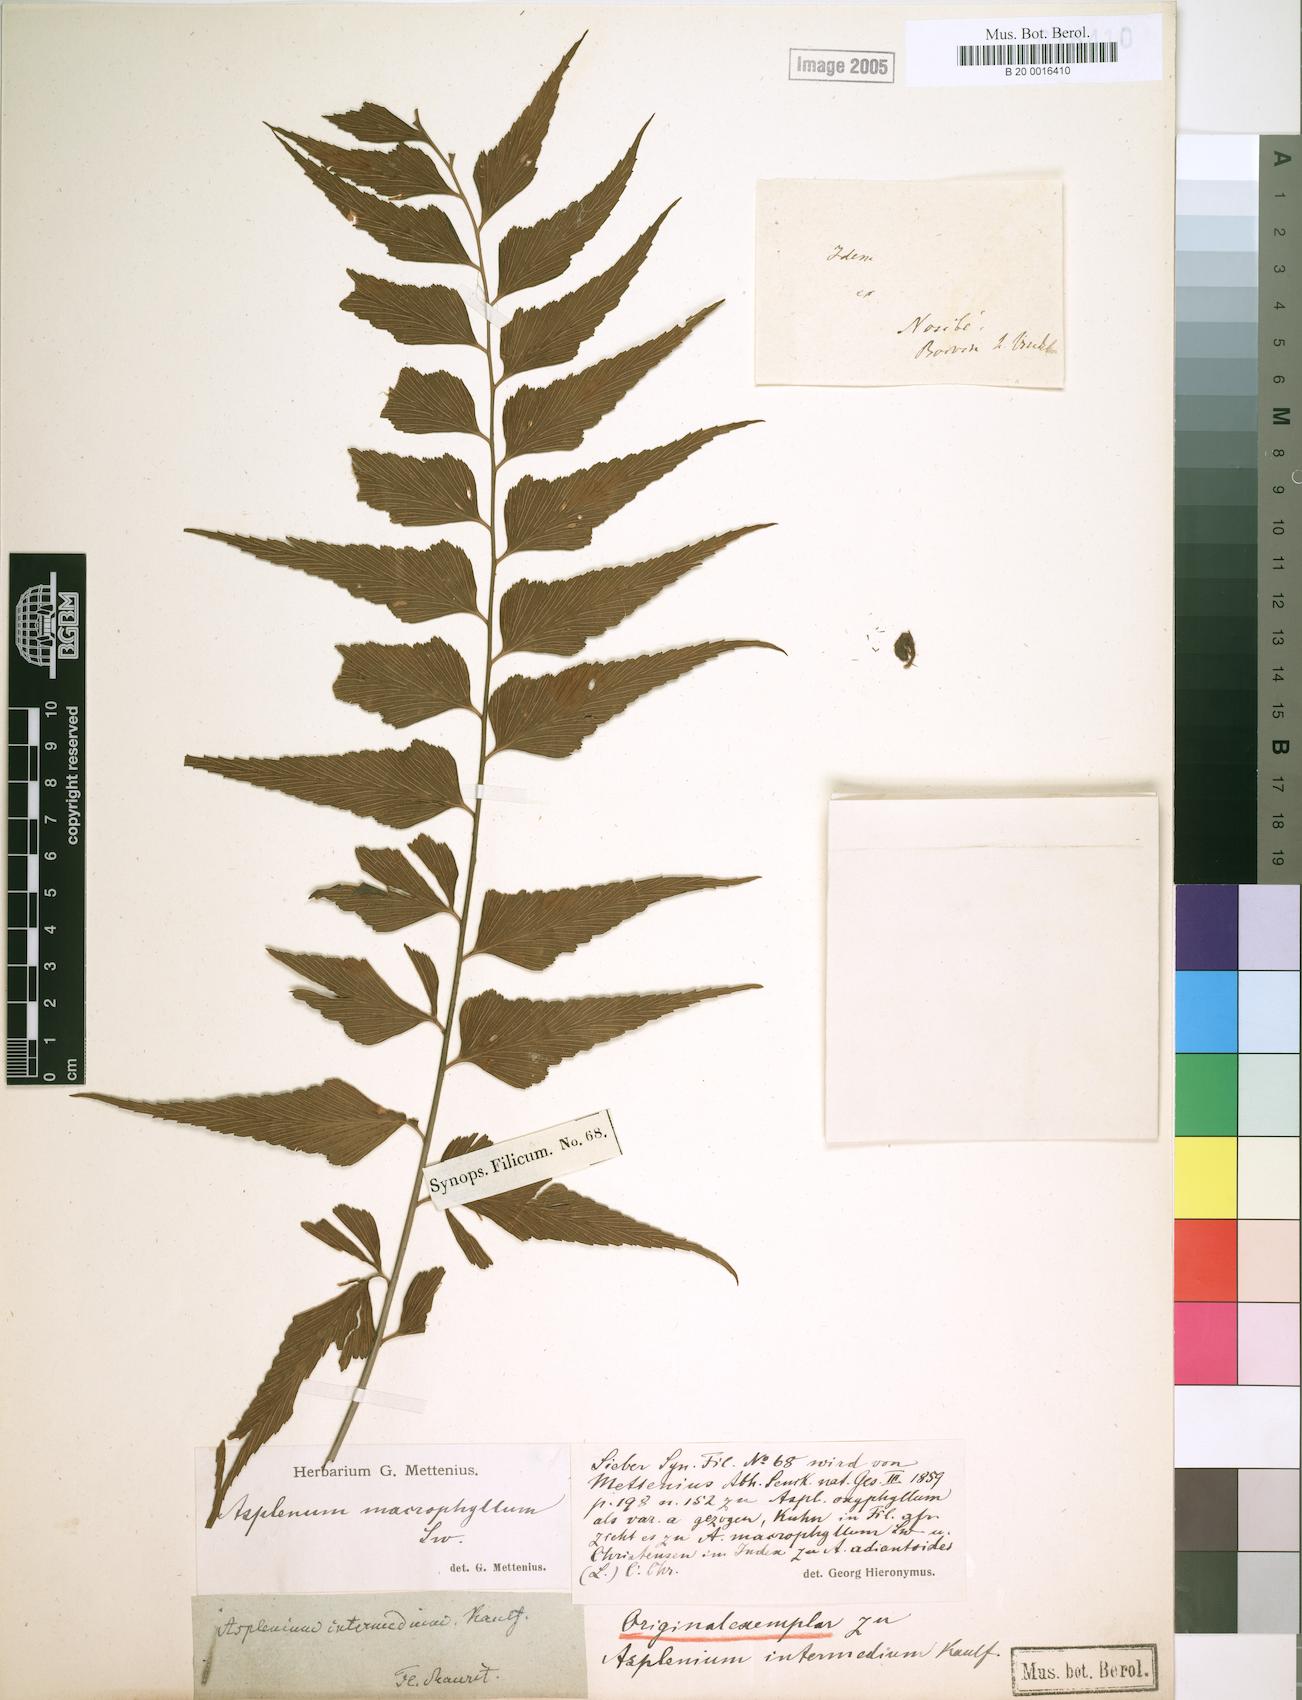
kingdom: Plantae
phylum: Tracheophyta
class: Polypodiopsida
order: Polypodiales
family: Aspleniaceae
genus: Asplenium
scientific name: Asplenium simile
